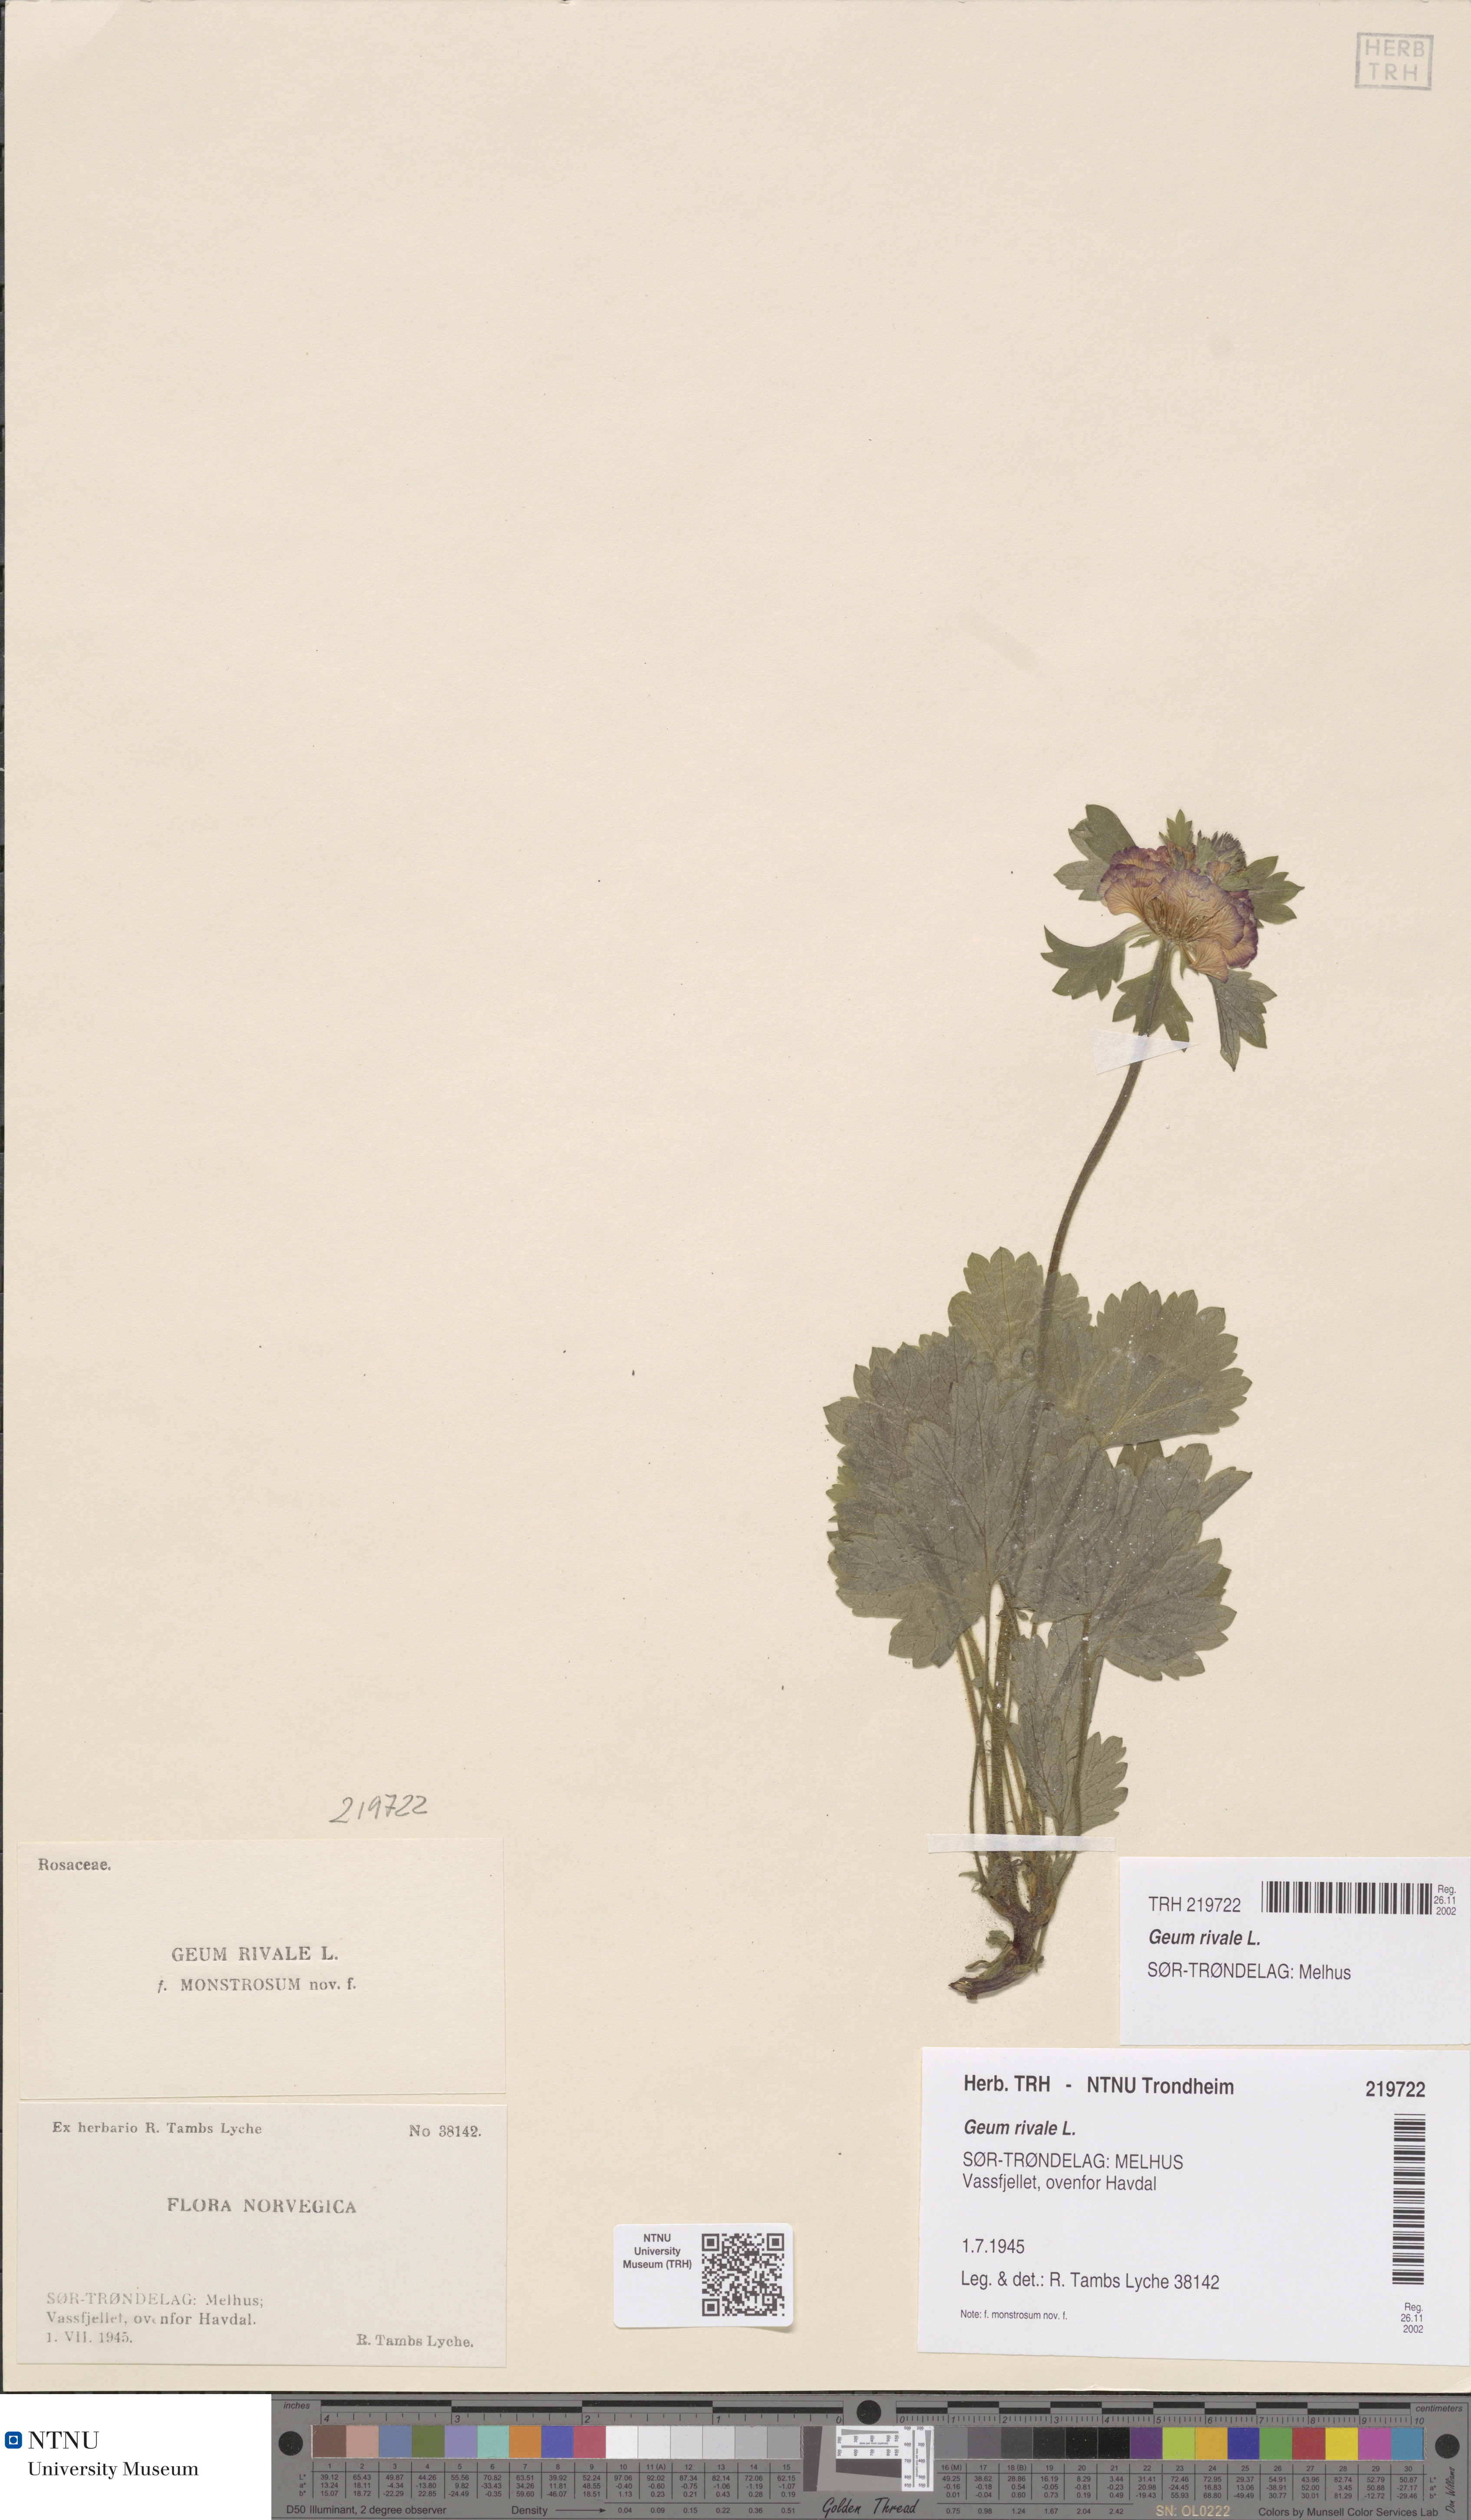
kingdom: Plantae
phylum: Tracheophyta
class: Magnoliopsida
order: Rosales
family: Rosaceae
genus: Geum
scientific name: Geum rivale
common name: Water avens
